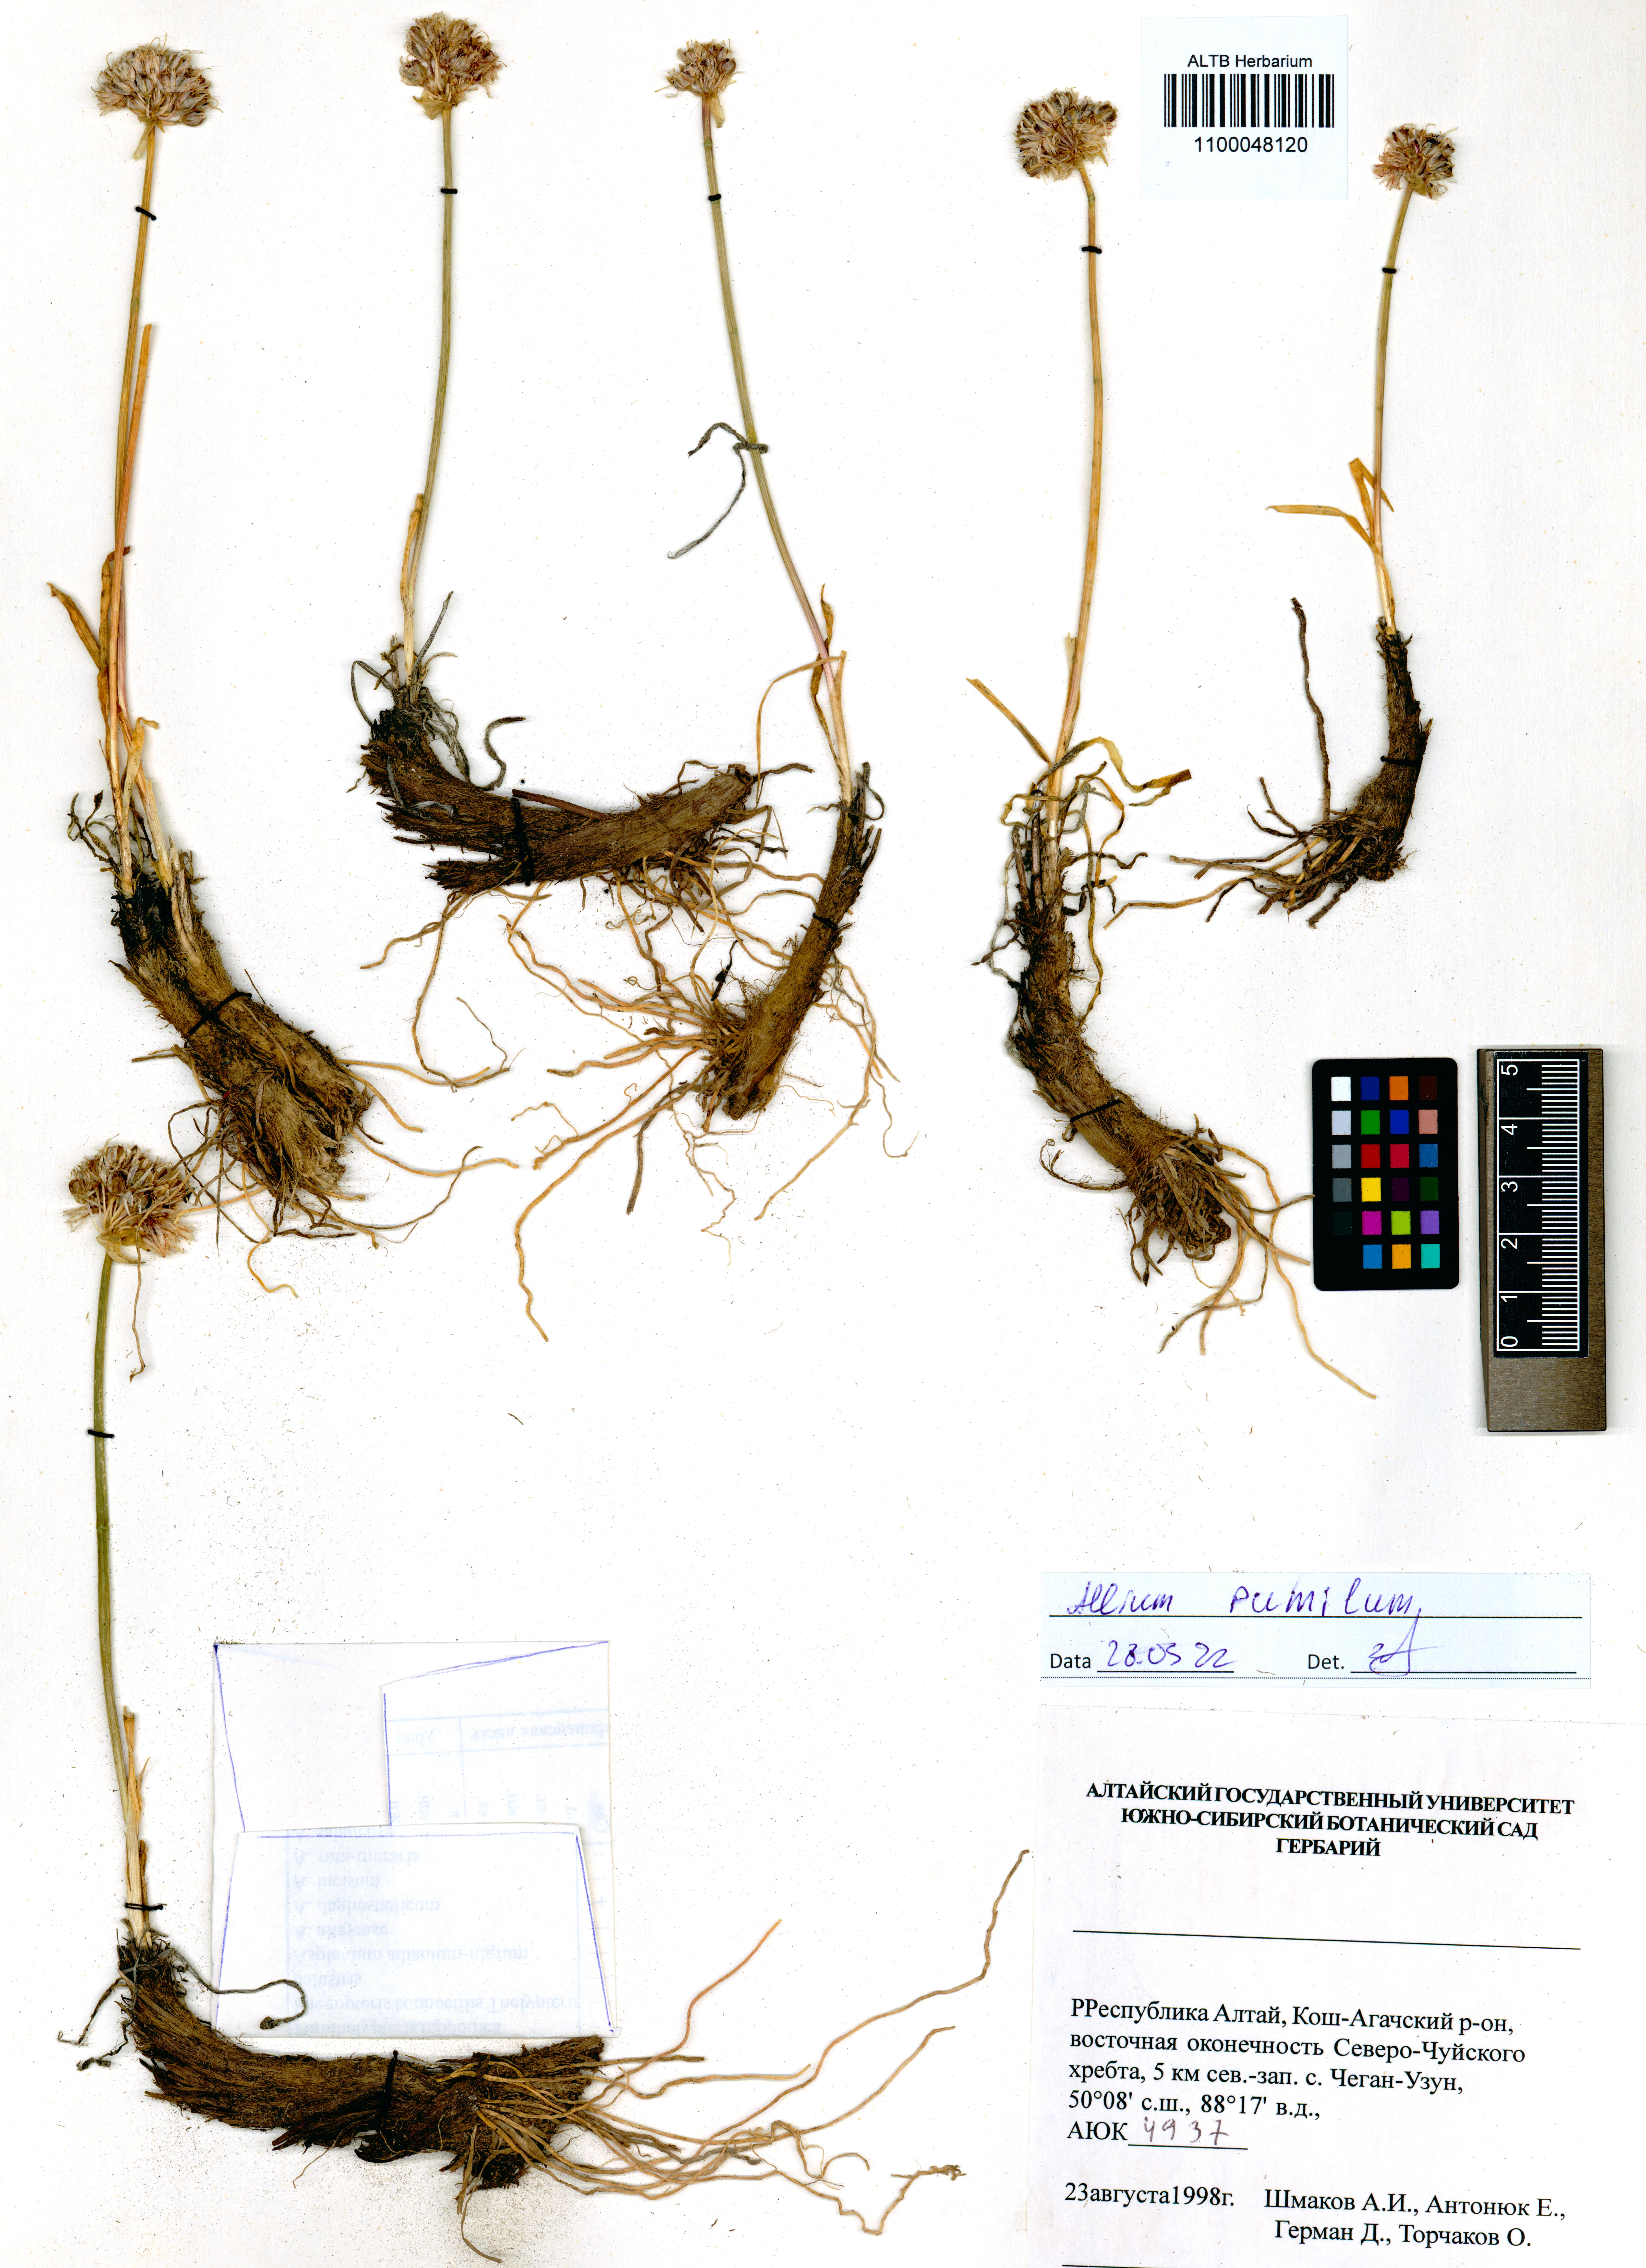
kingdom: Plantae
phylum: Tracheophyta
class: Liliopsida
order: Asparagales
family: Amaryllidaceae
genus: Allium
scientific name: Allium pumilum
